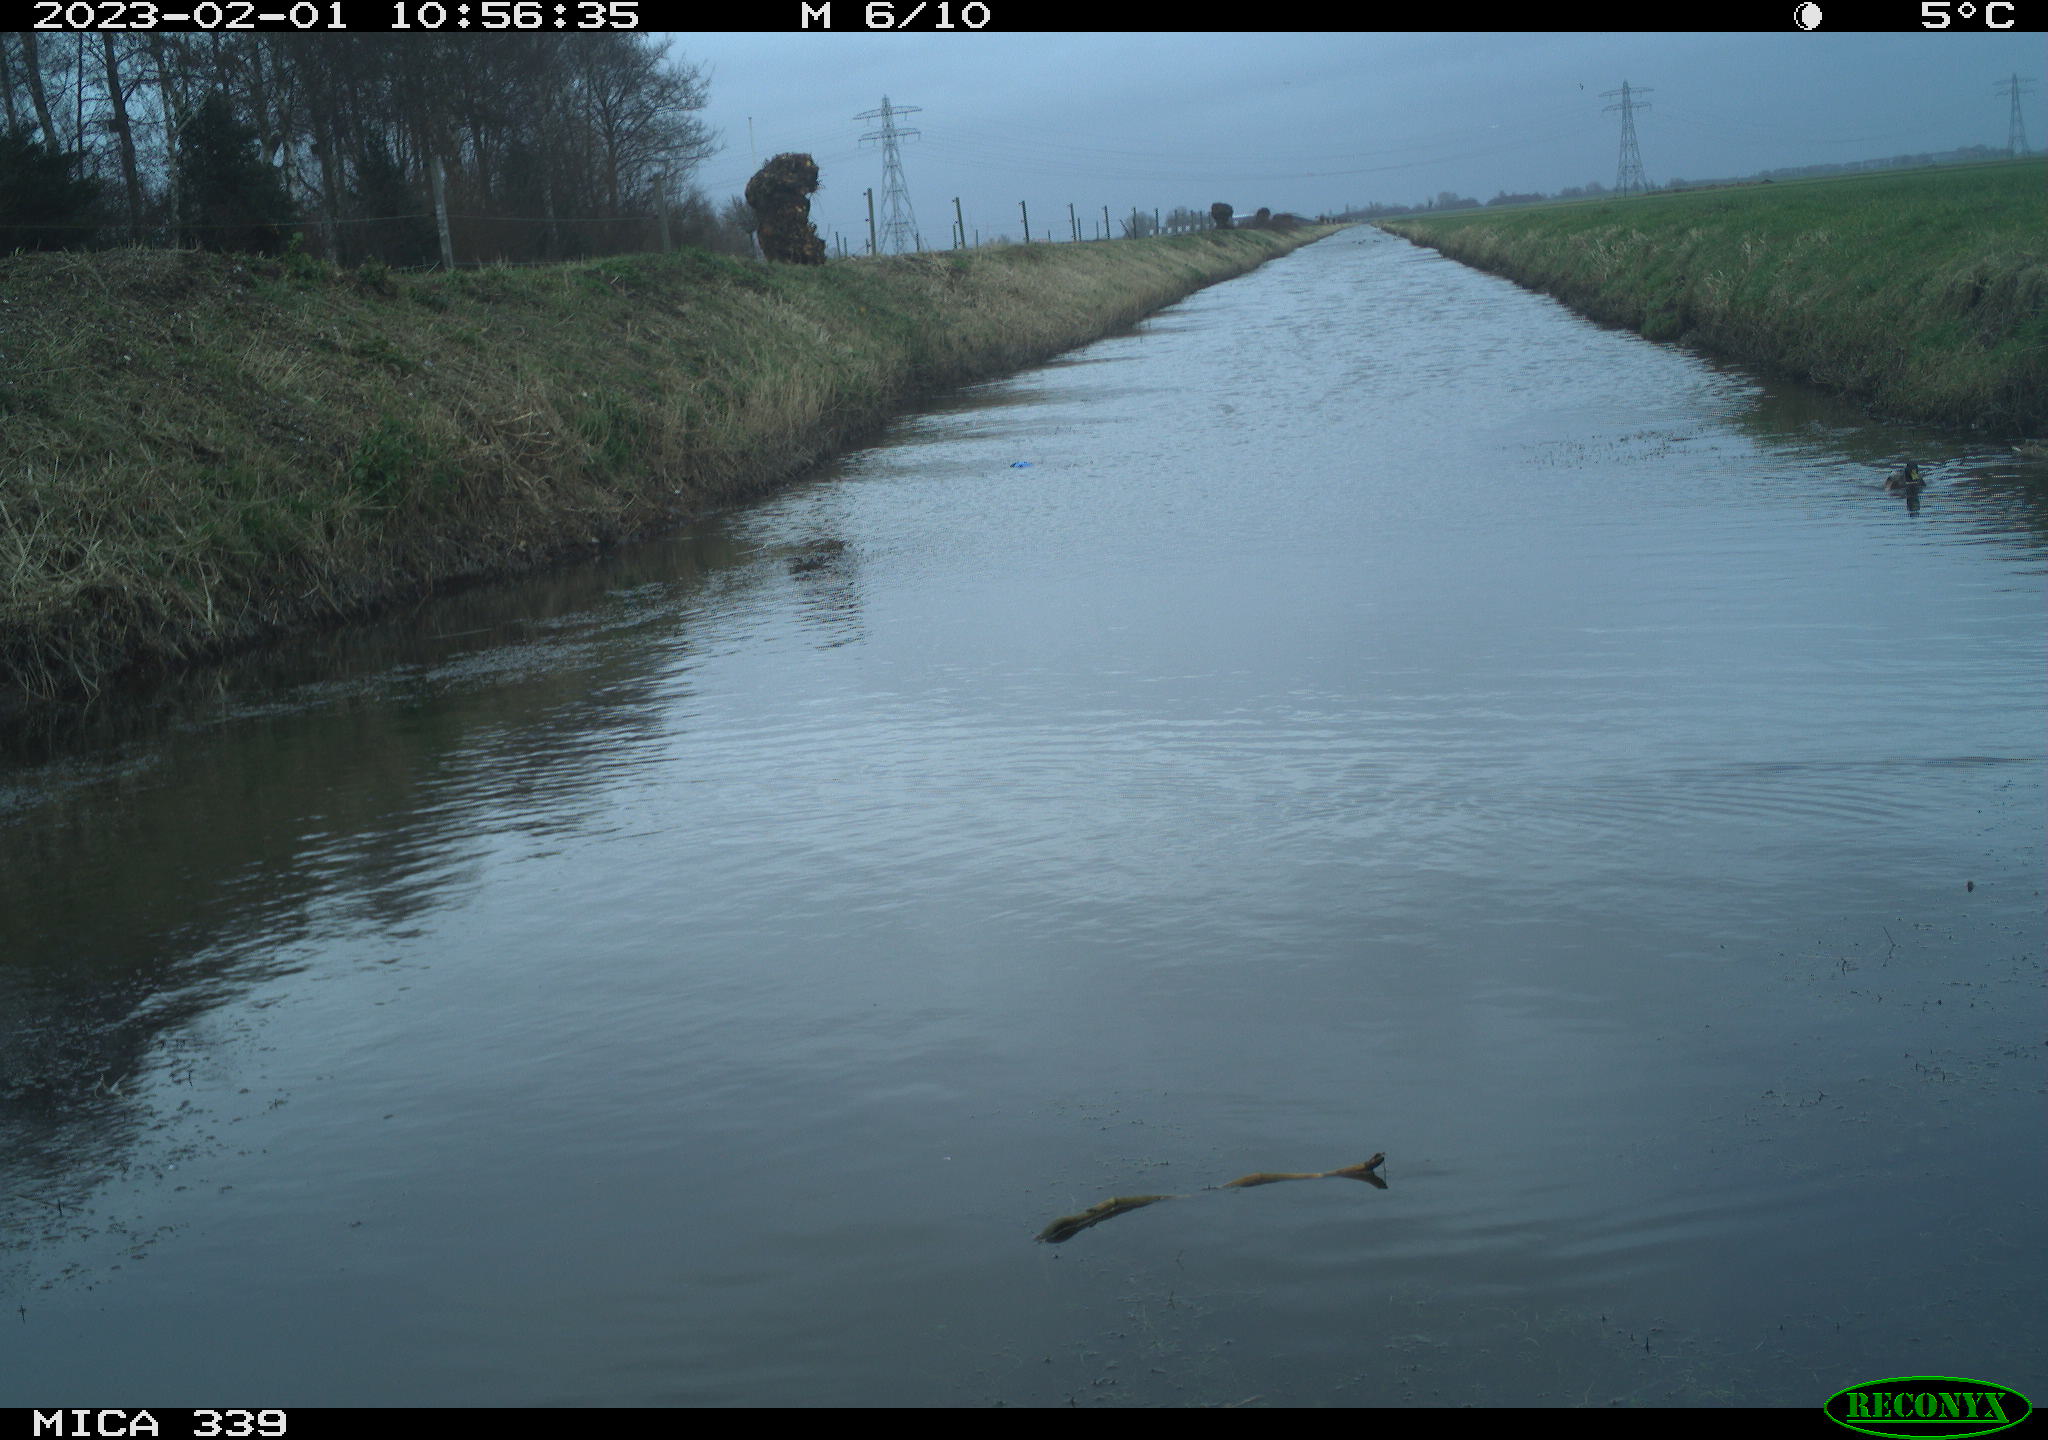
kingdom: Animalia
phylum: Chordata
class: Aves
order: Anseriformes
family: Anatidae
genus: Anas
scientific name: Anas
